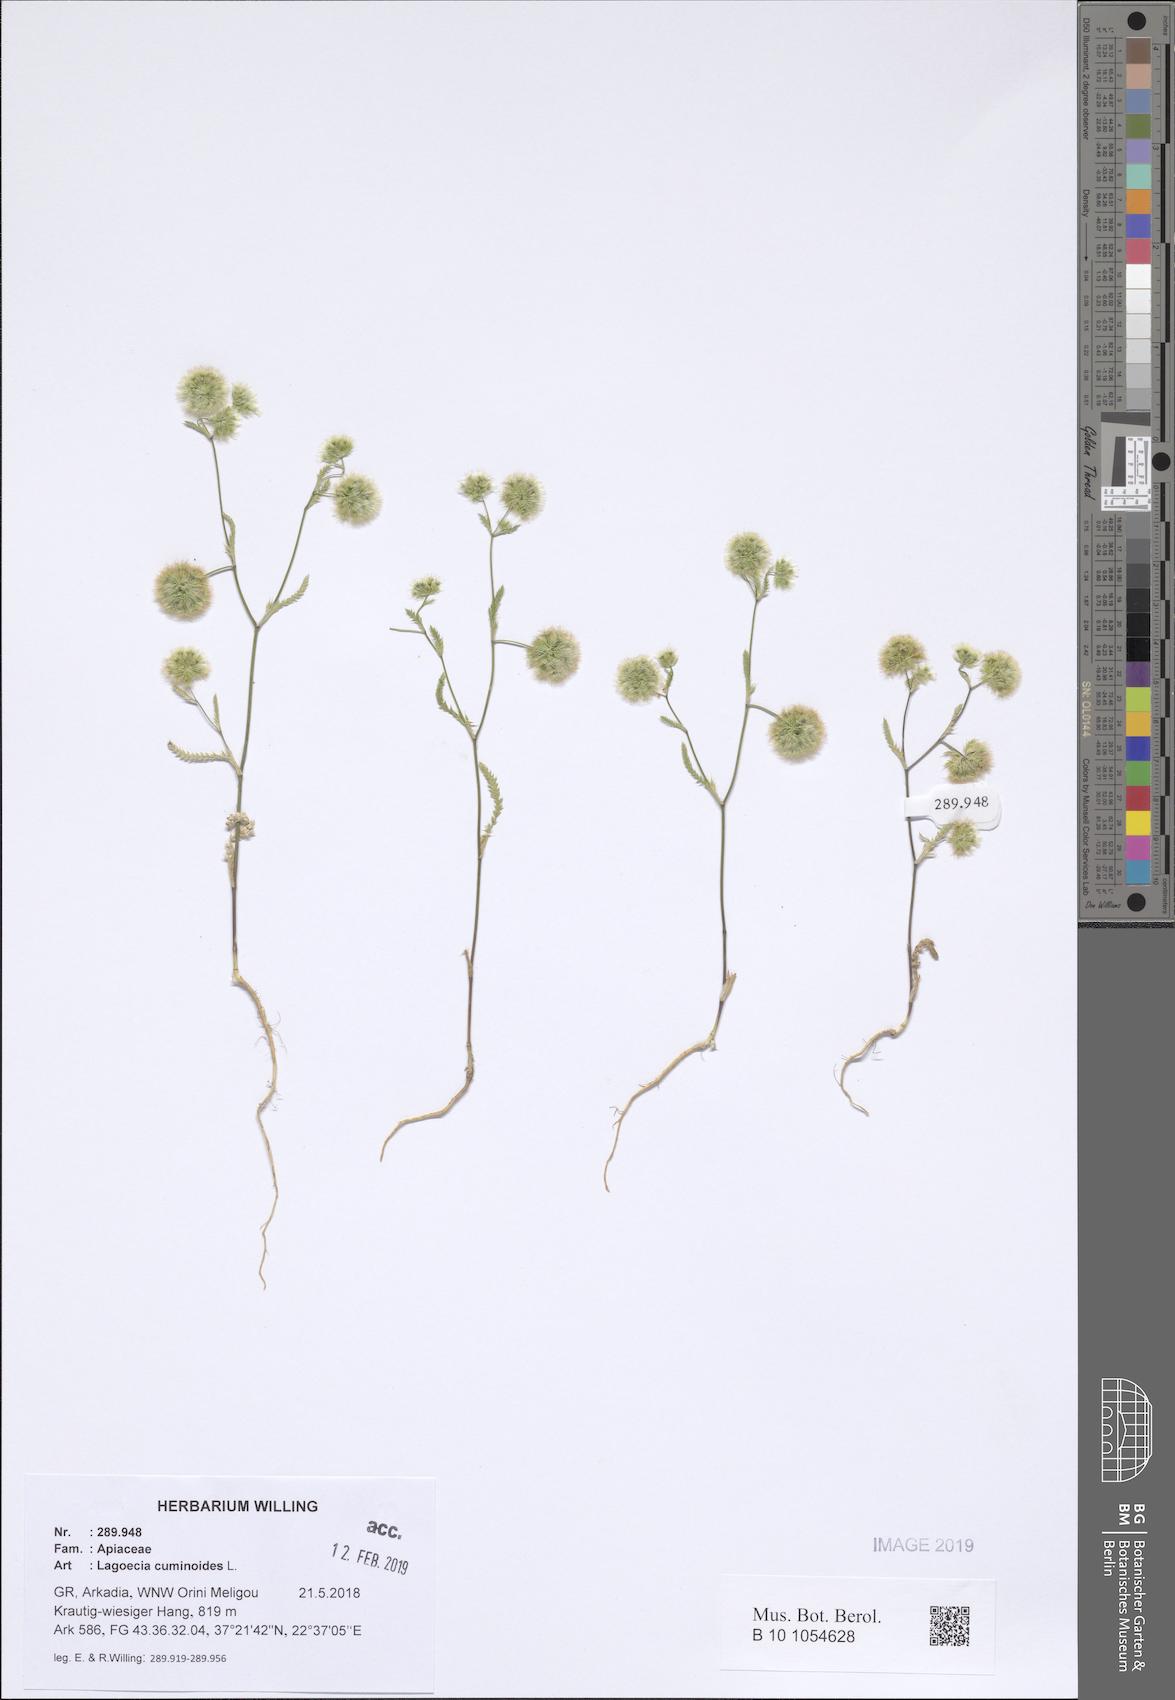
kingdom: Plantae
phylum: Tracheophyta
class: Magnoliopsida
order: Apiales
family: Apiaceae
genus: Lagoecia
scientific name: Lagoecia cuminoides
